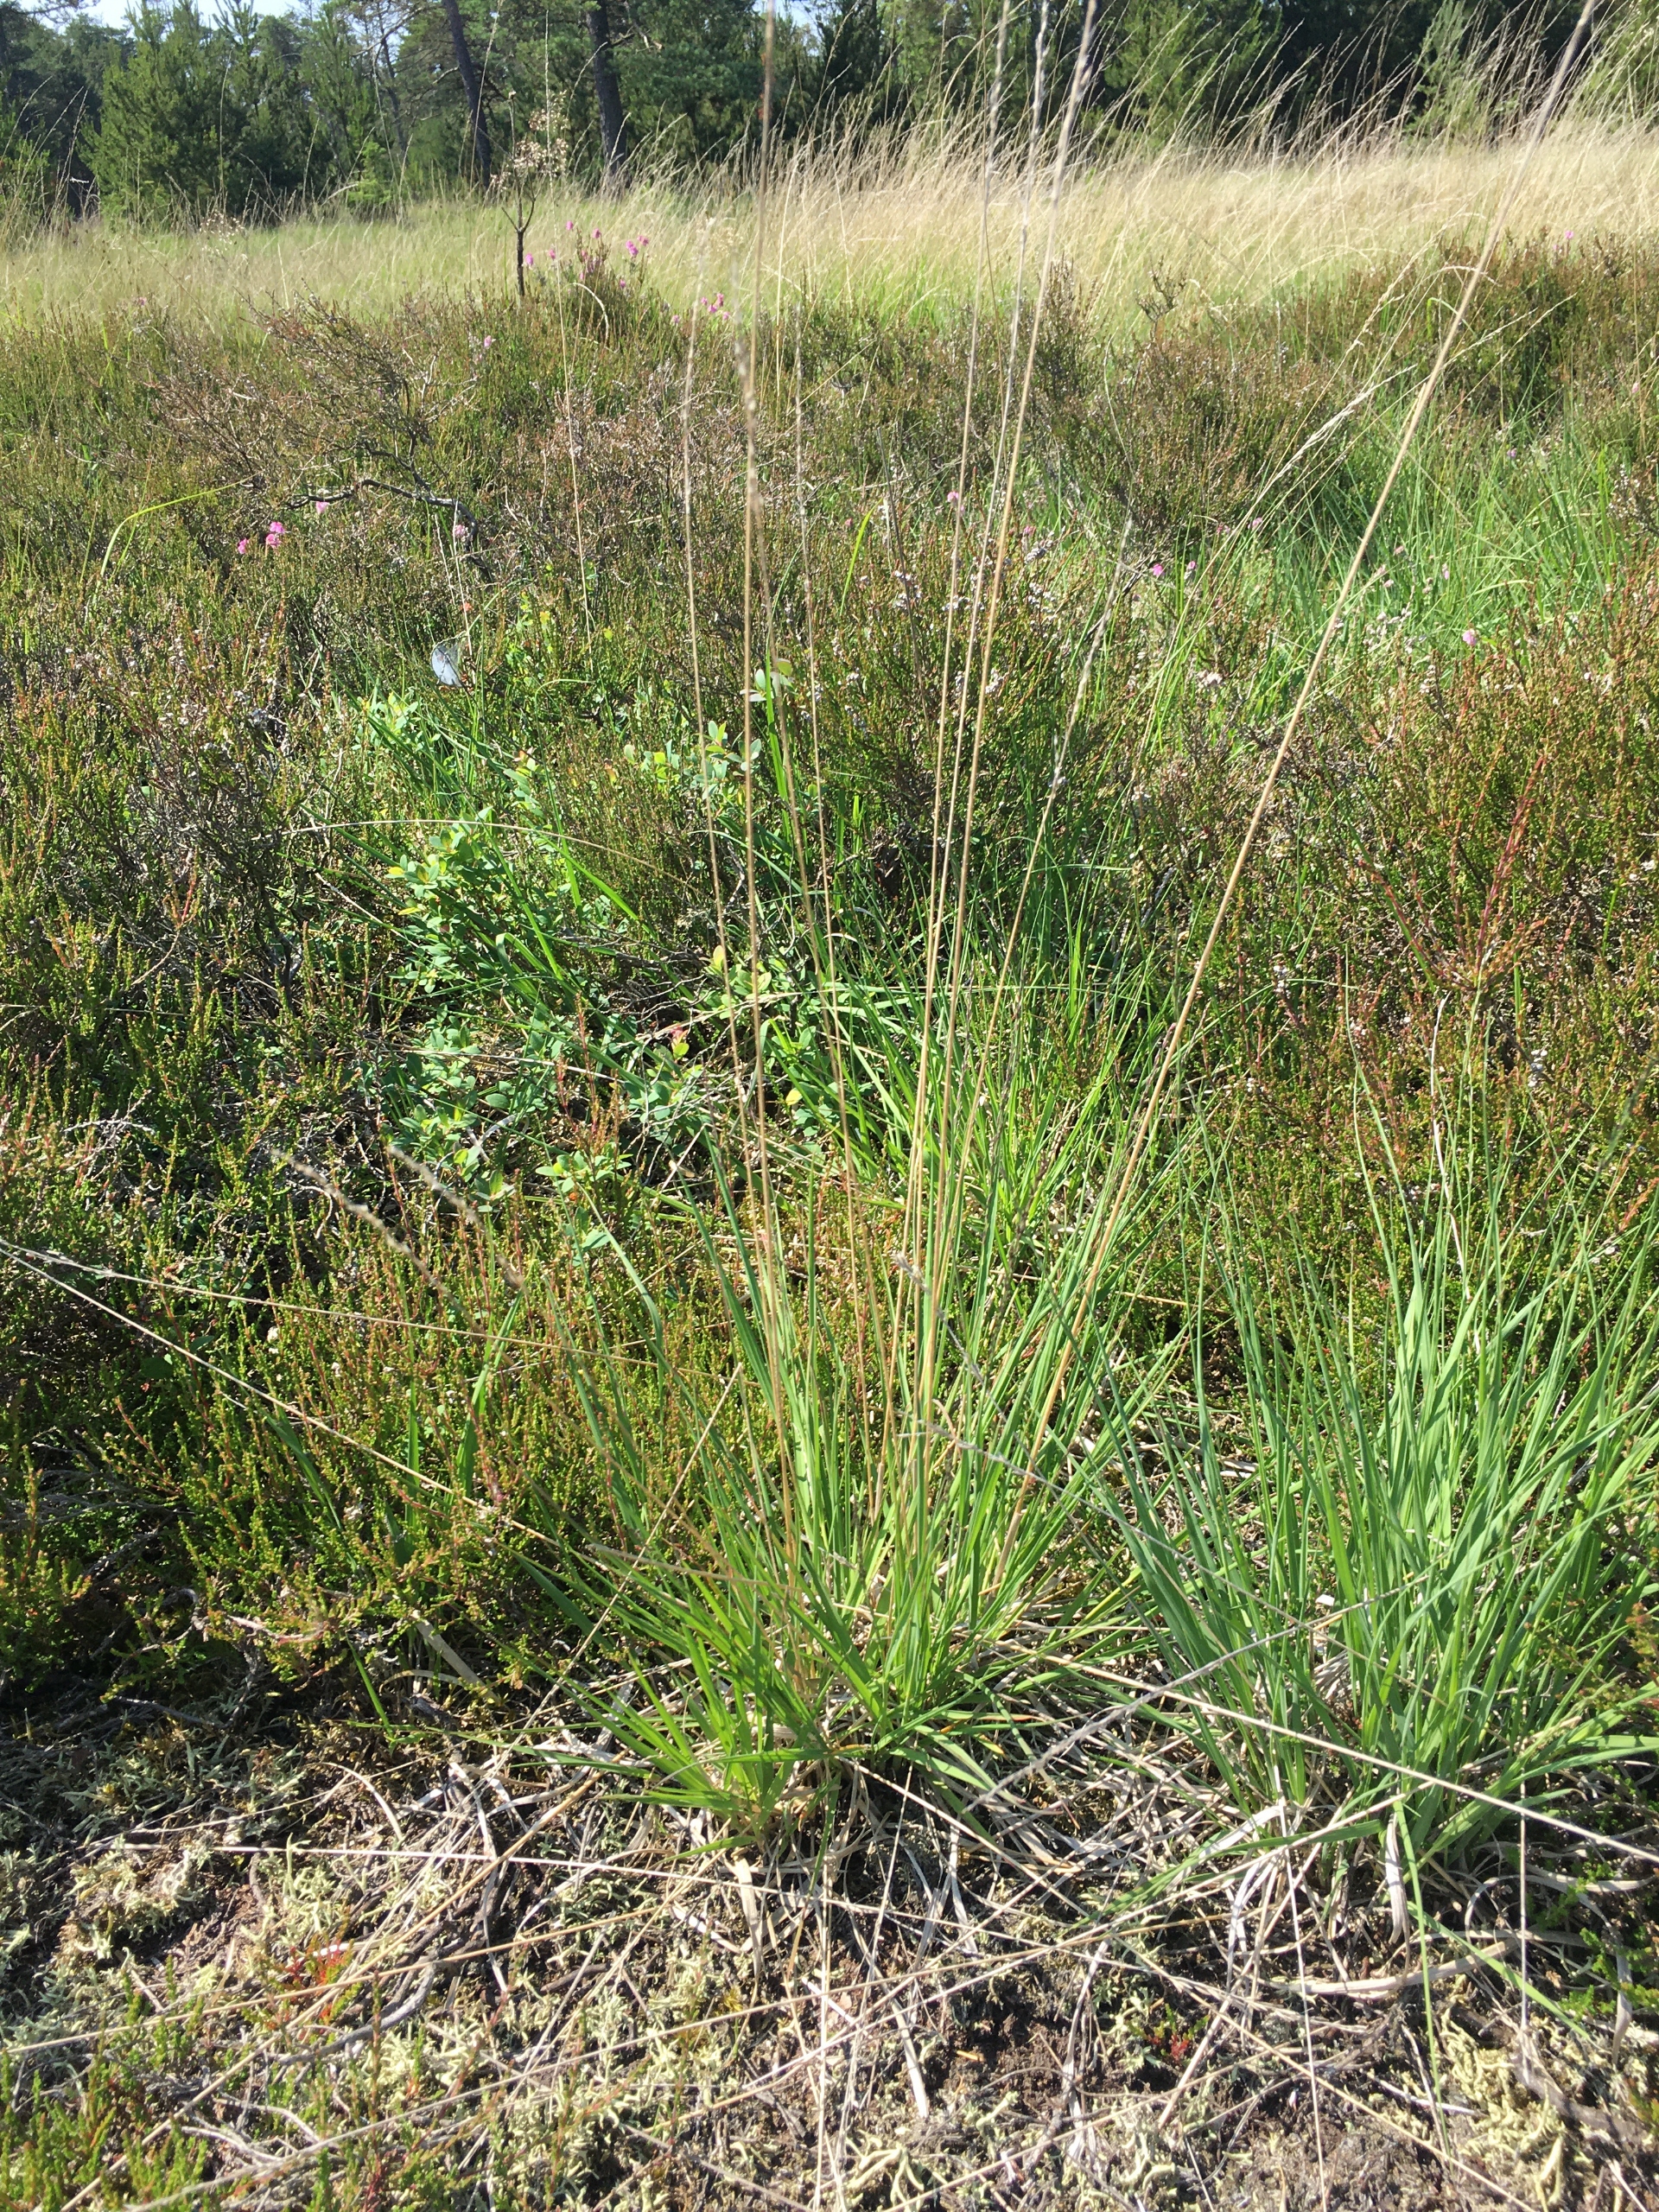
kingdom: Plantae
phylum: Tracheophyta
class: Liliopsida
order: Poales
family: Poaceae
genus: Molinia
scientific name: Molinia caerulea
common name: Blåtop
